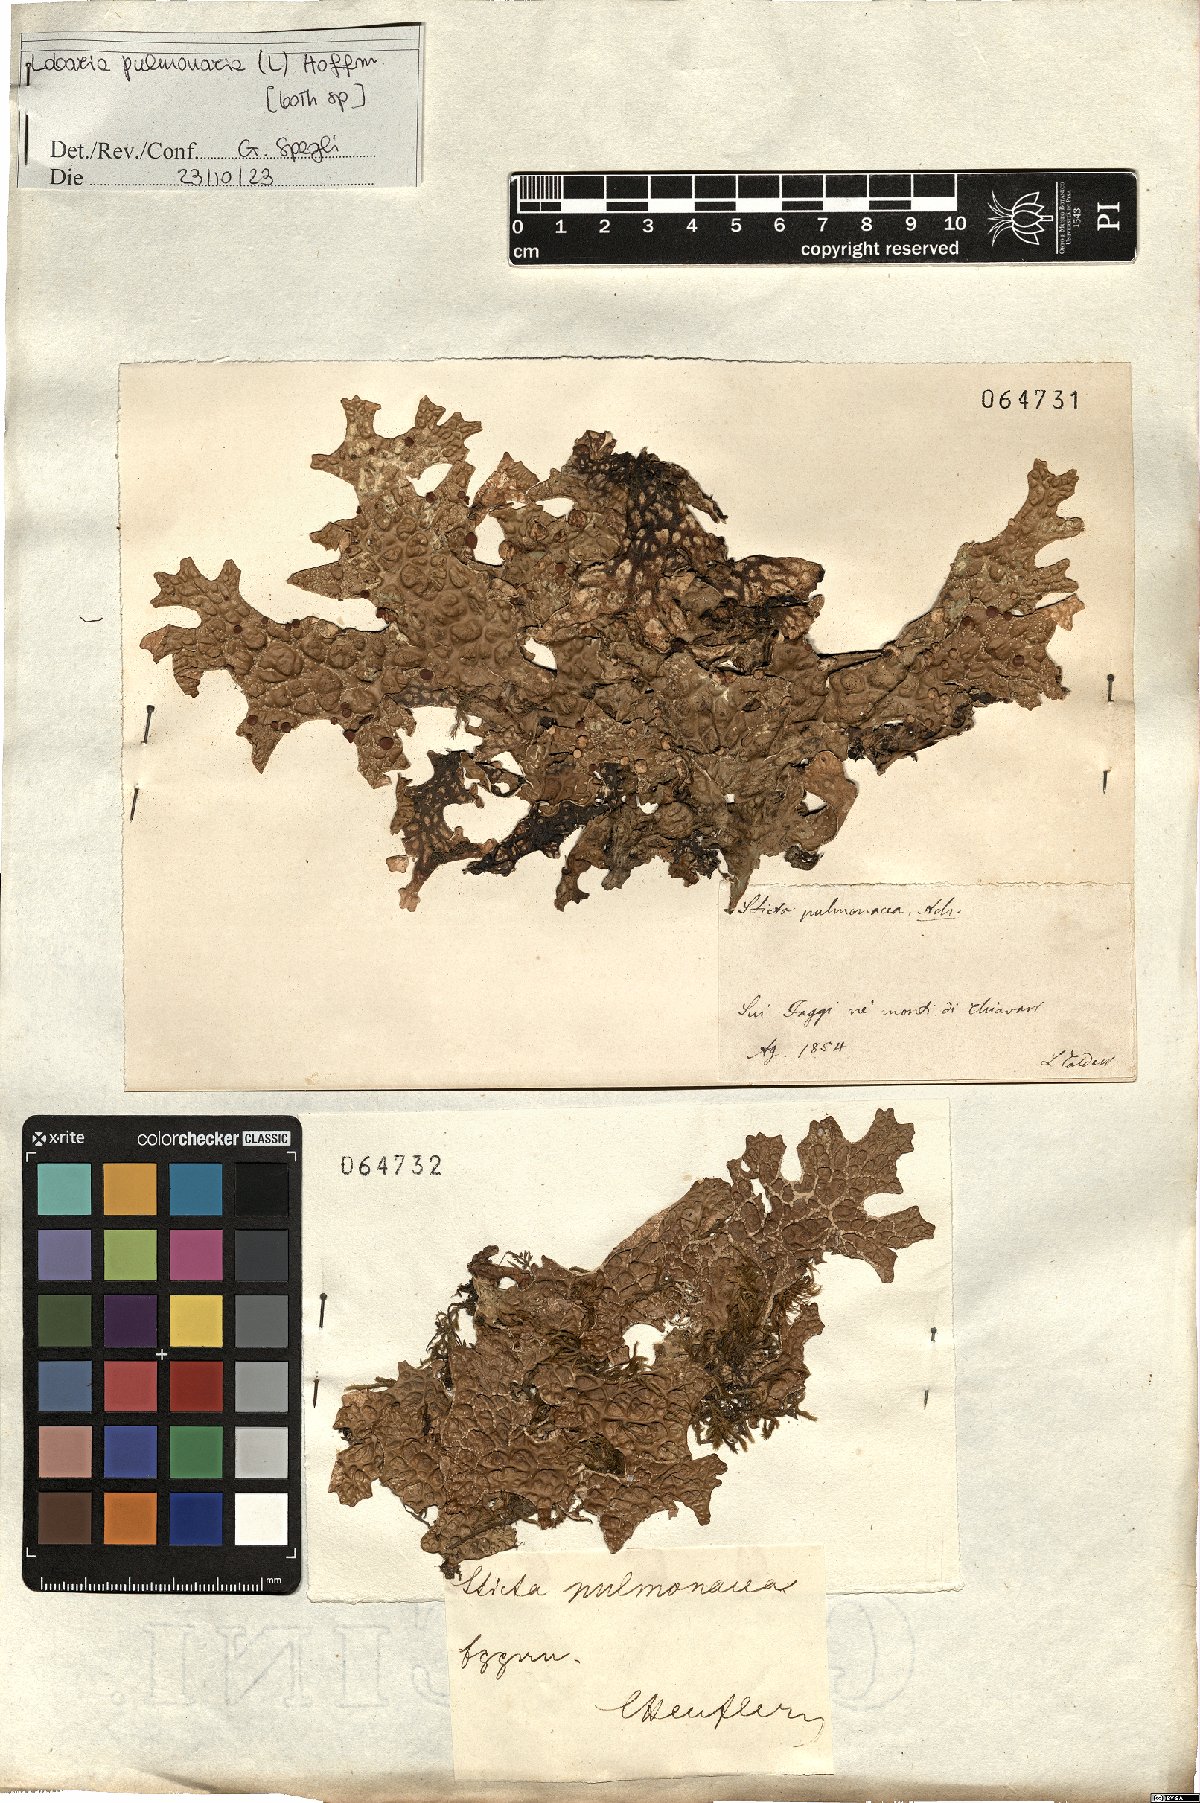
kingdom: Fungi
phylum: Ascomycota
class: Lecanoromycetes
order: Peltigerales
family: Lobariaceae
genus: Lobaria
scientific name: Lobaria pulmonaria
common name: Lungwort
